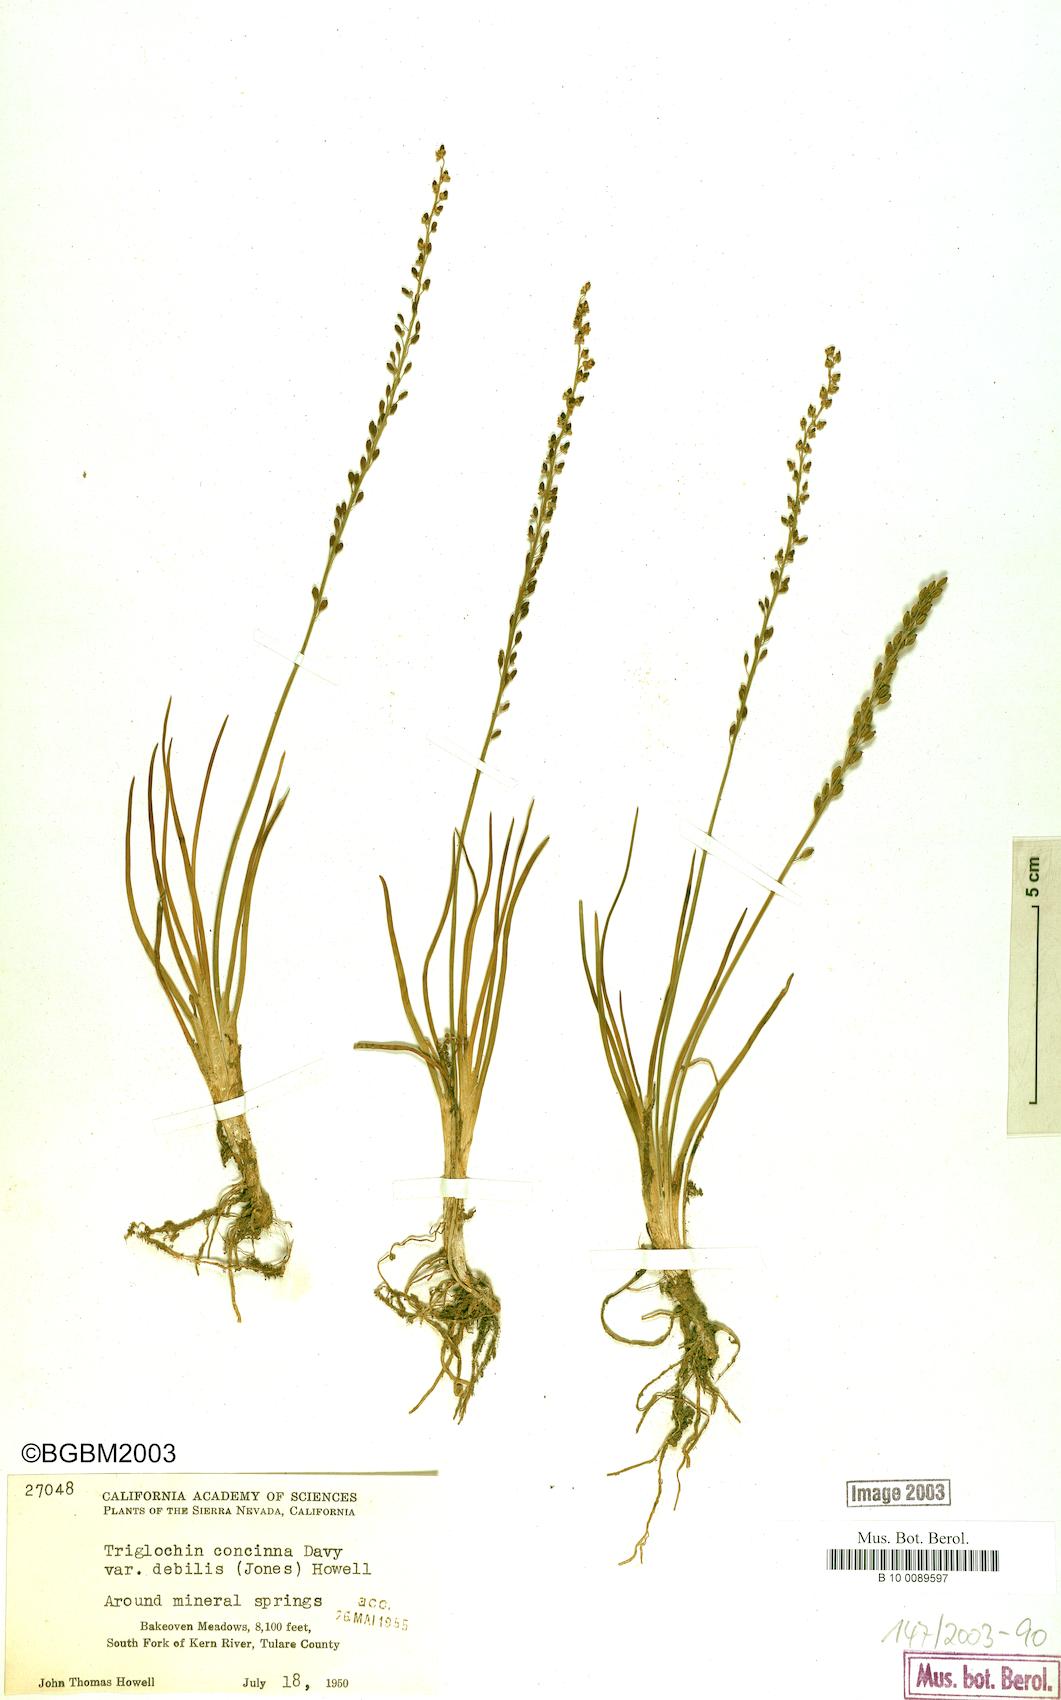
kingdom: Plantae
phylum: Tracheophyta
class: Liliopsida
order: Alismatales
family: Juncaginaceae
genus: Triglochin
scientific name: Triglochin maritima
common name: Sea arrowgrass
